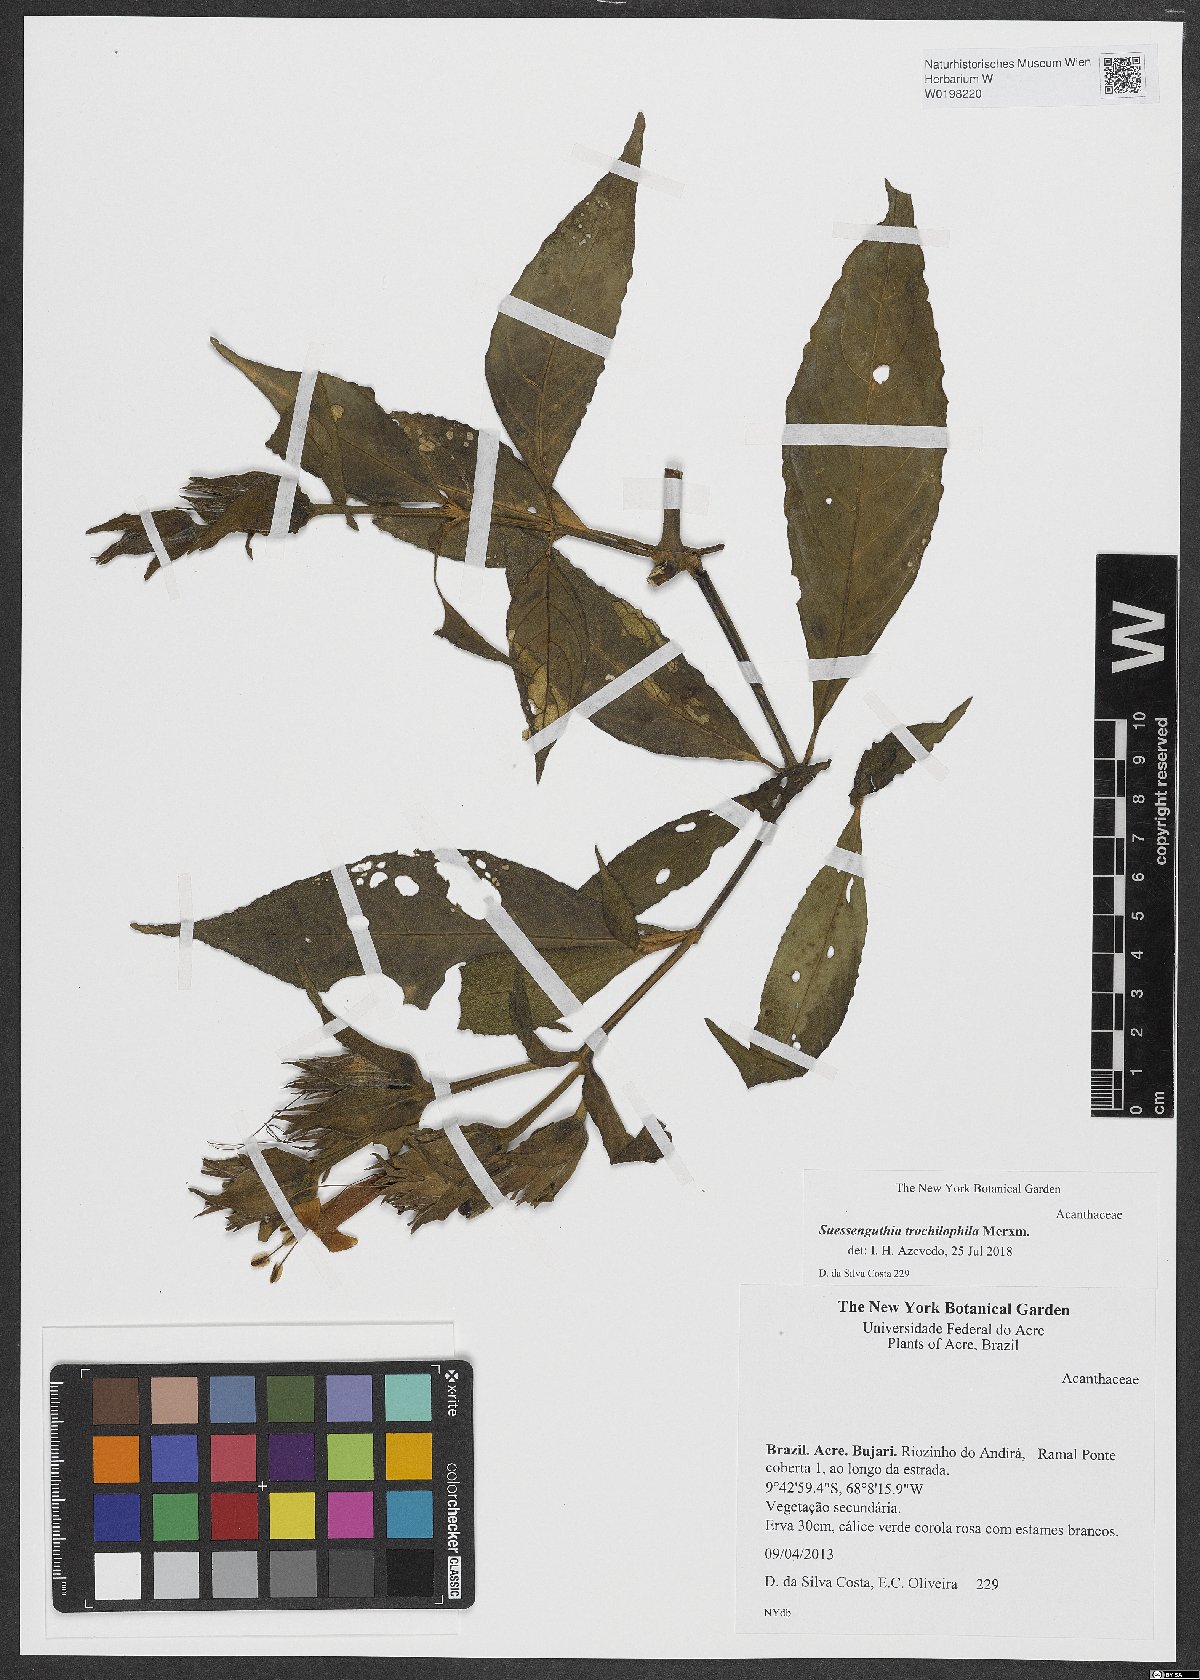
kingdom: Plantae
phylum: Tracheophyta
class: Magnoliopsida
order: Lamiales
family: Acanthaceae
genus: Suessenguthia
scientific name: Suessenguthia trochilophila
